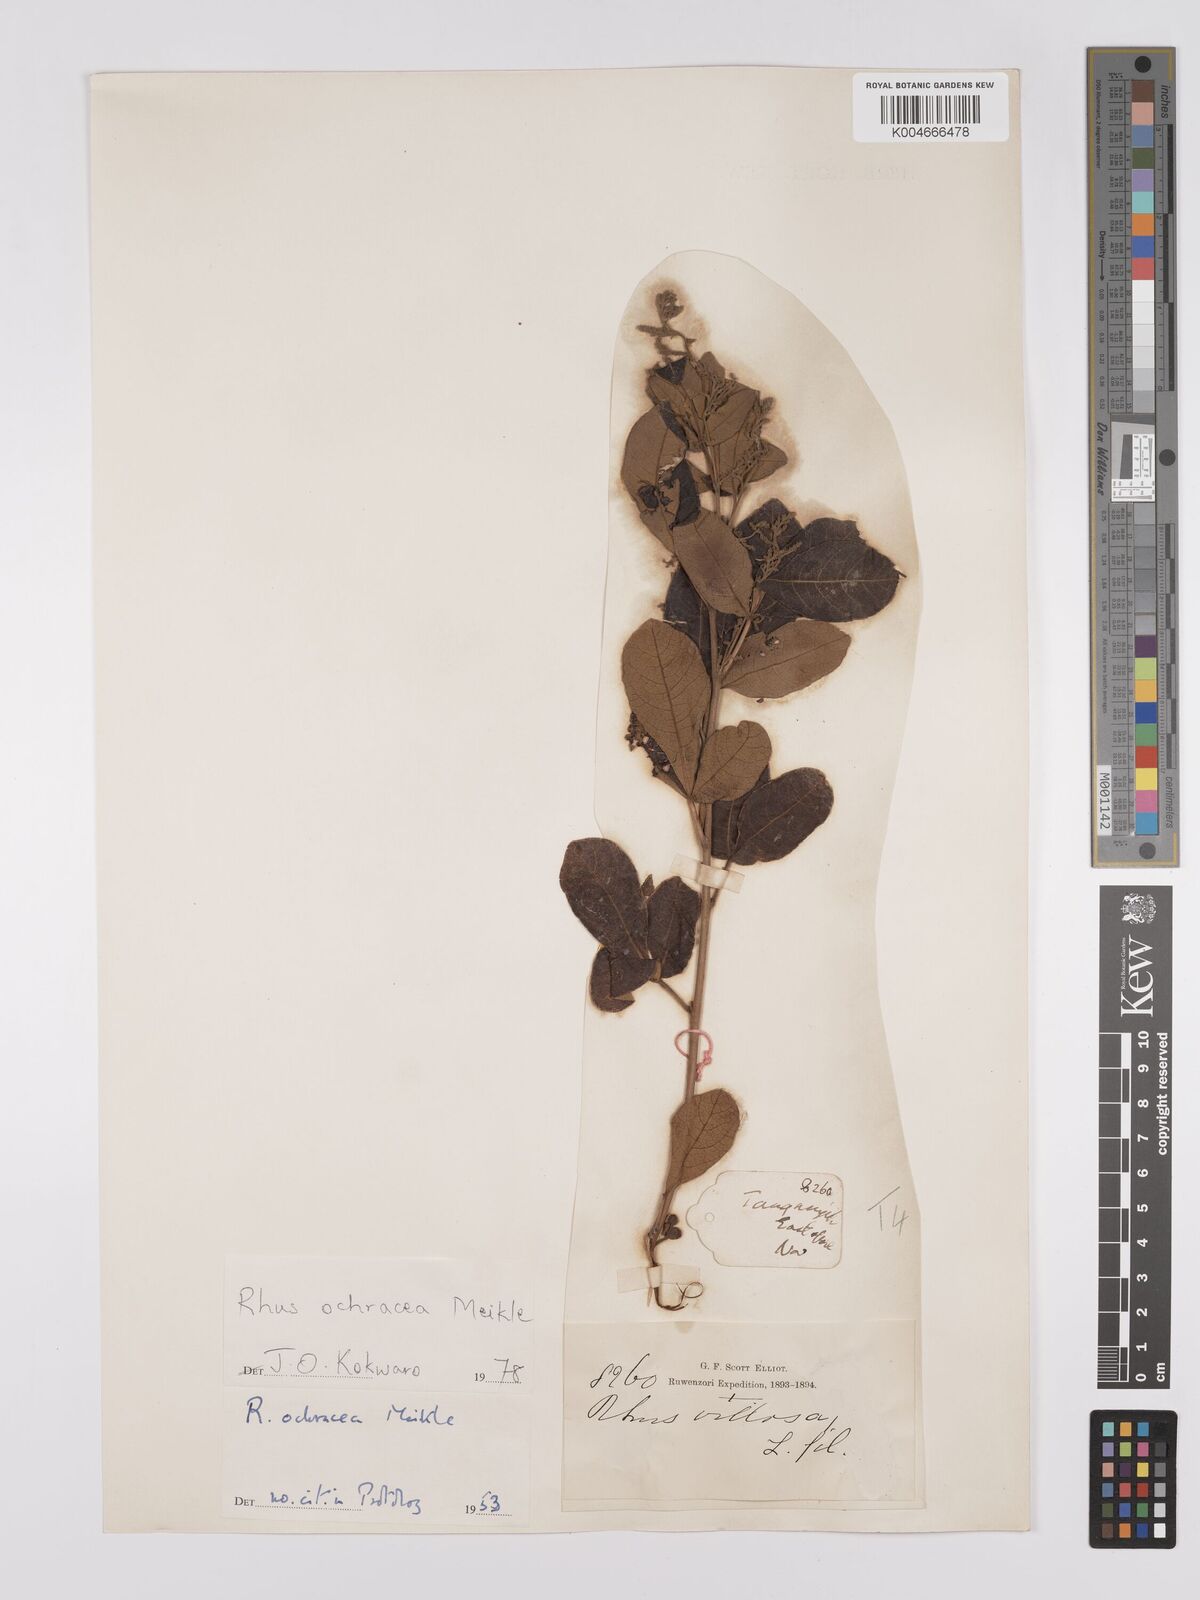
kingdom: Plantae
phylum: Tracheophyta
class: Magnoliopsida
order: Sapindales
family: Anacardiaceae
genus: Searsia
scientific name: Searsia ochracea
